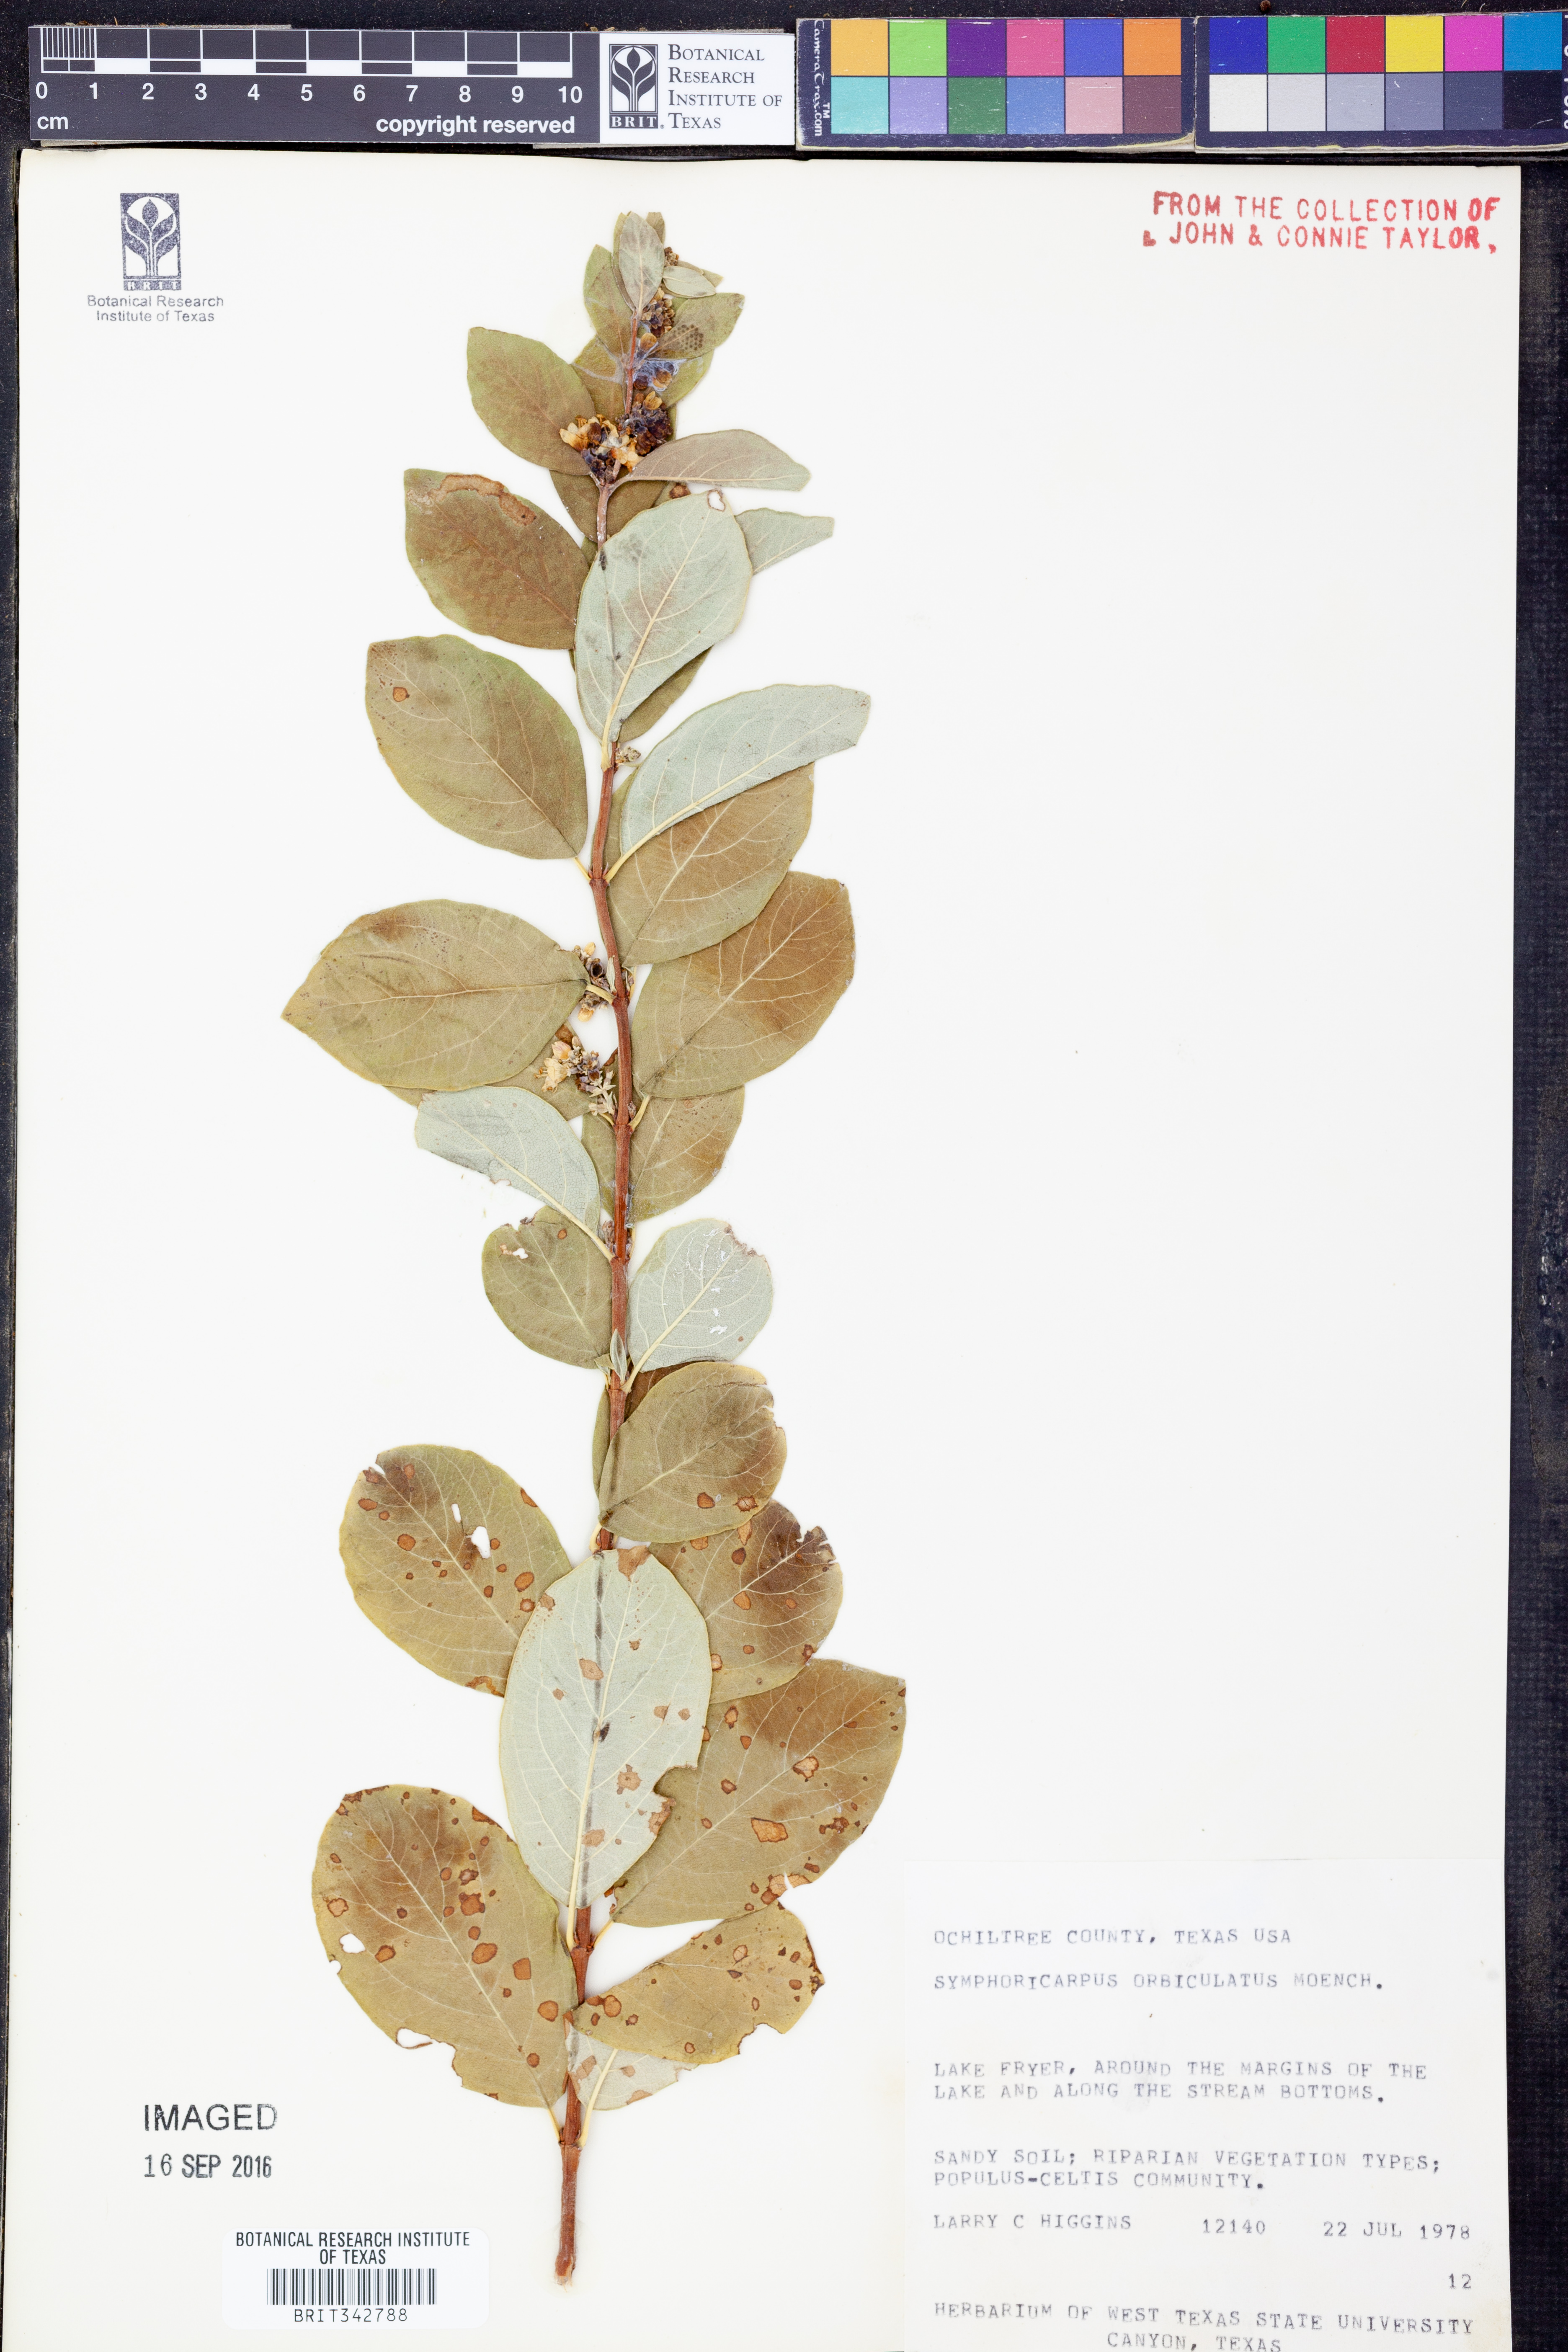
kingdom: Plantae
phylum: Tracheophyta
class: Magnoliopsida
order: Dipsacales
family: Caprifoliaceae
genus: Symphoricarpos
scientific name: Symphoricarpos orbiculatus
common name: Coralberry
